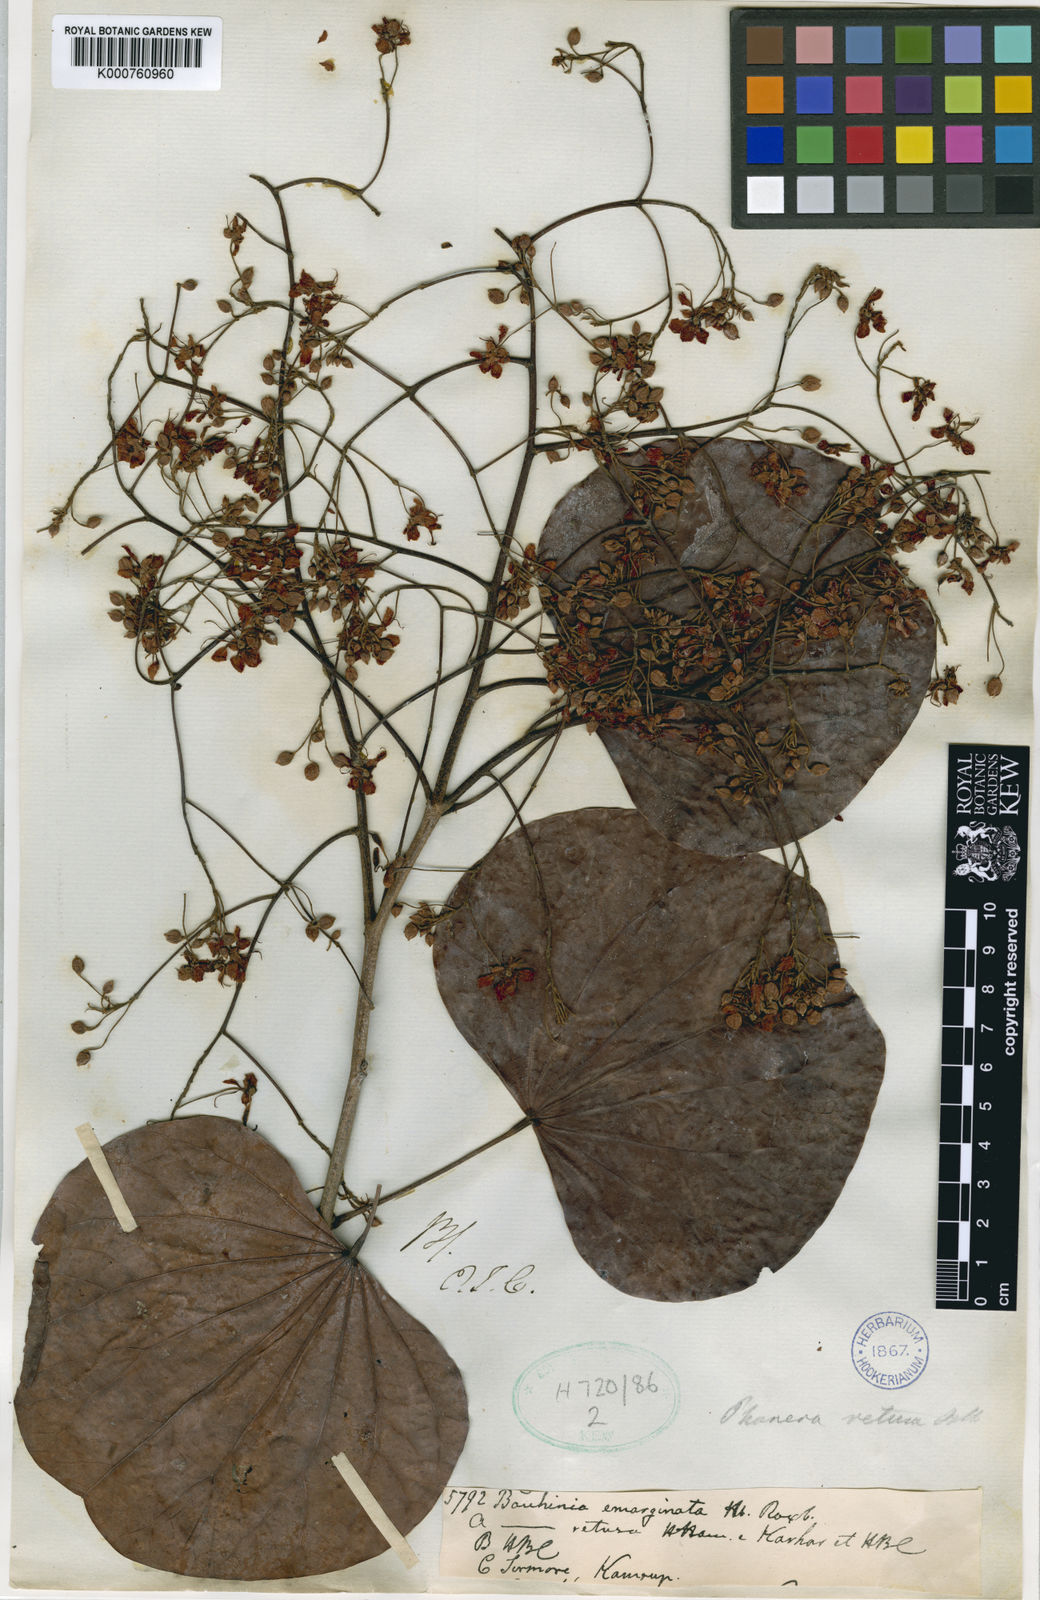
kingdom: Plantae
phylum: Tracheophyta
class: Magnoliopsida
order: Fabales
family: Fabaceae
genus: Phanera
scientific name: Phanera roxburghiana
